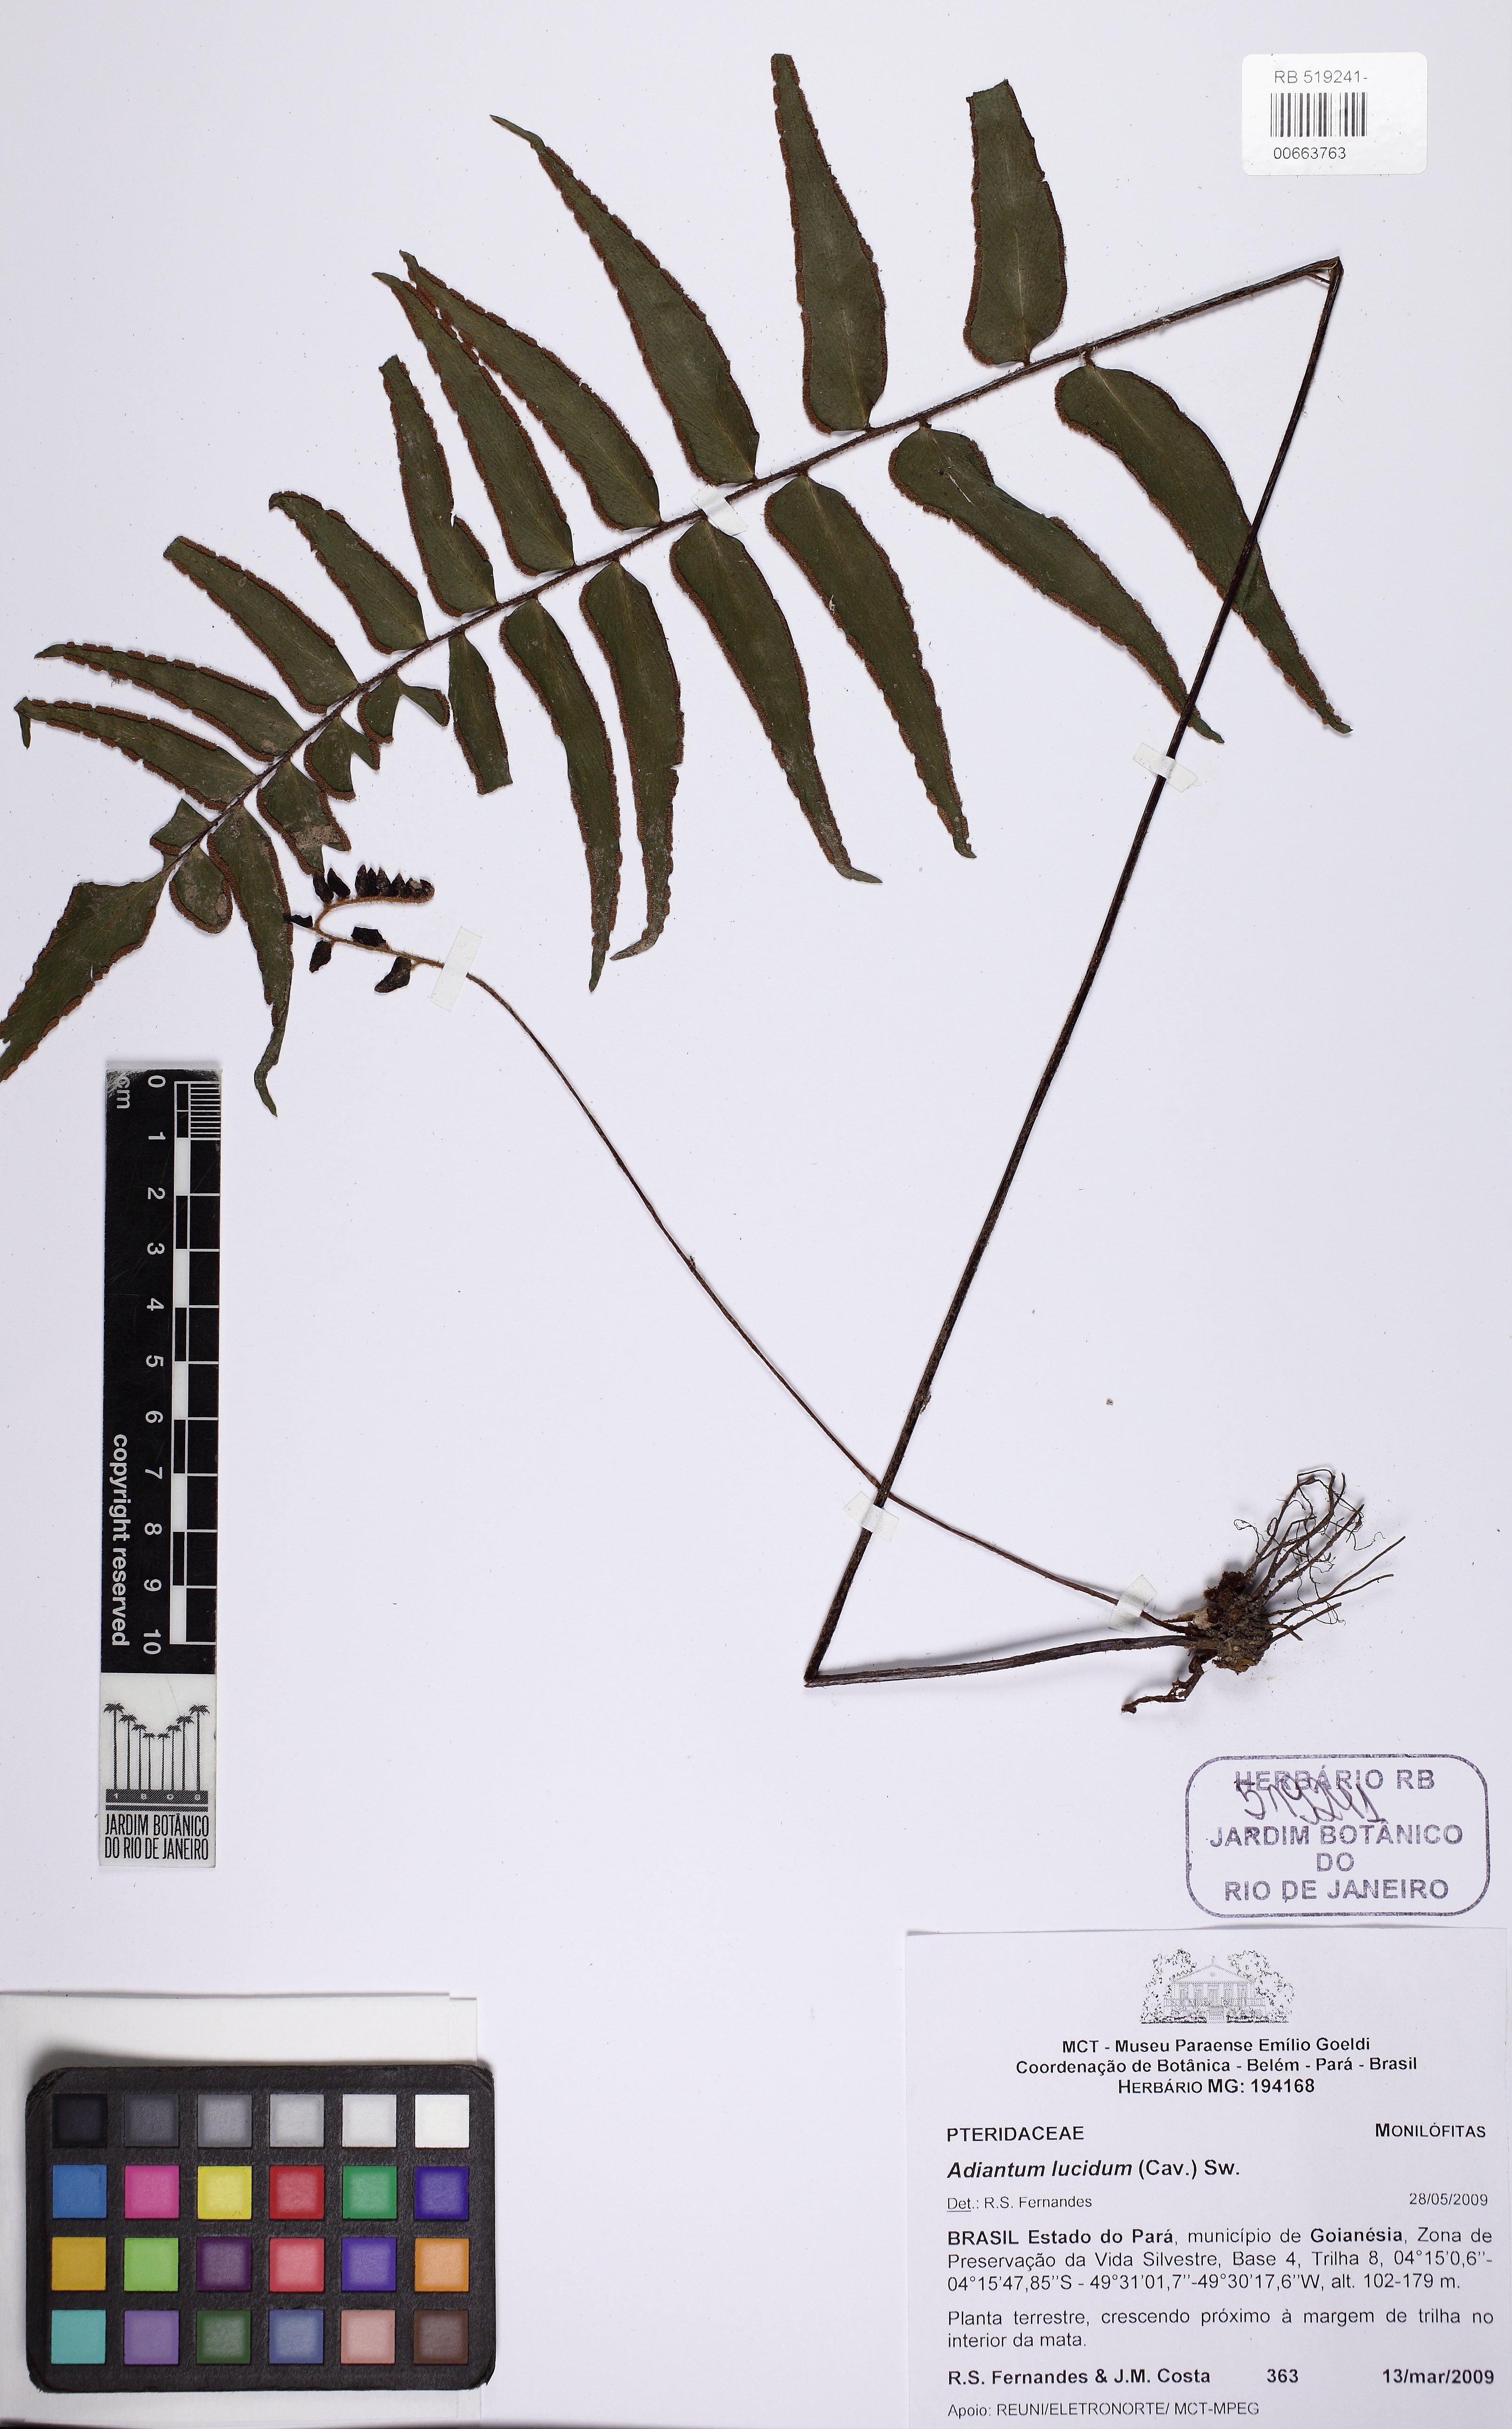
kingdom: Plantae
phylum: Tracheophyta
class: Polypodiopsida
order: Polypodiales
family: Pteridaceae
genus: Adiantum
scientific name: Adiantum lucidum
